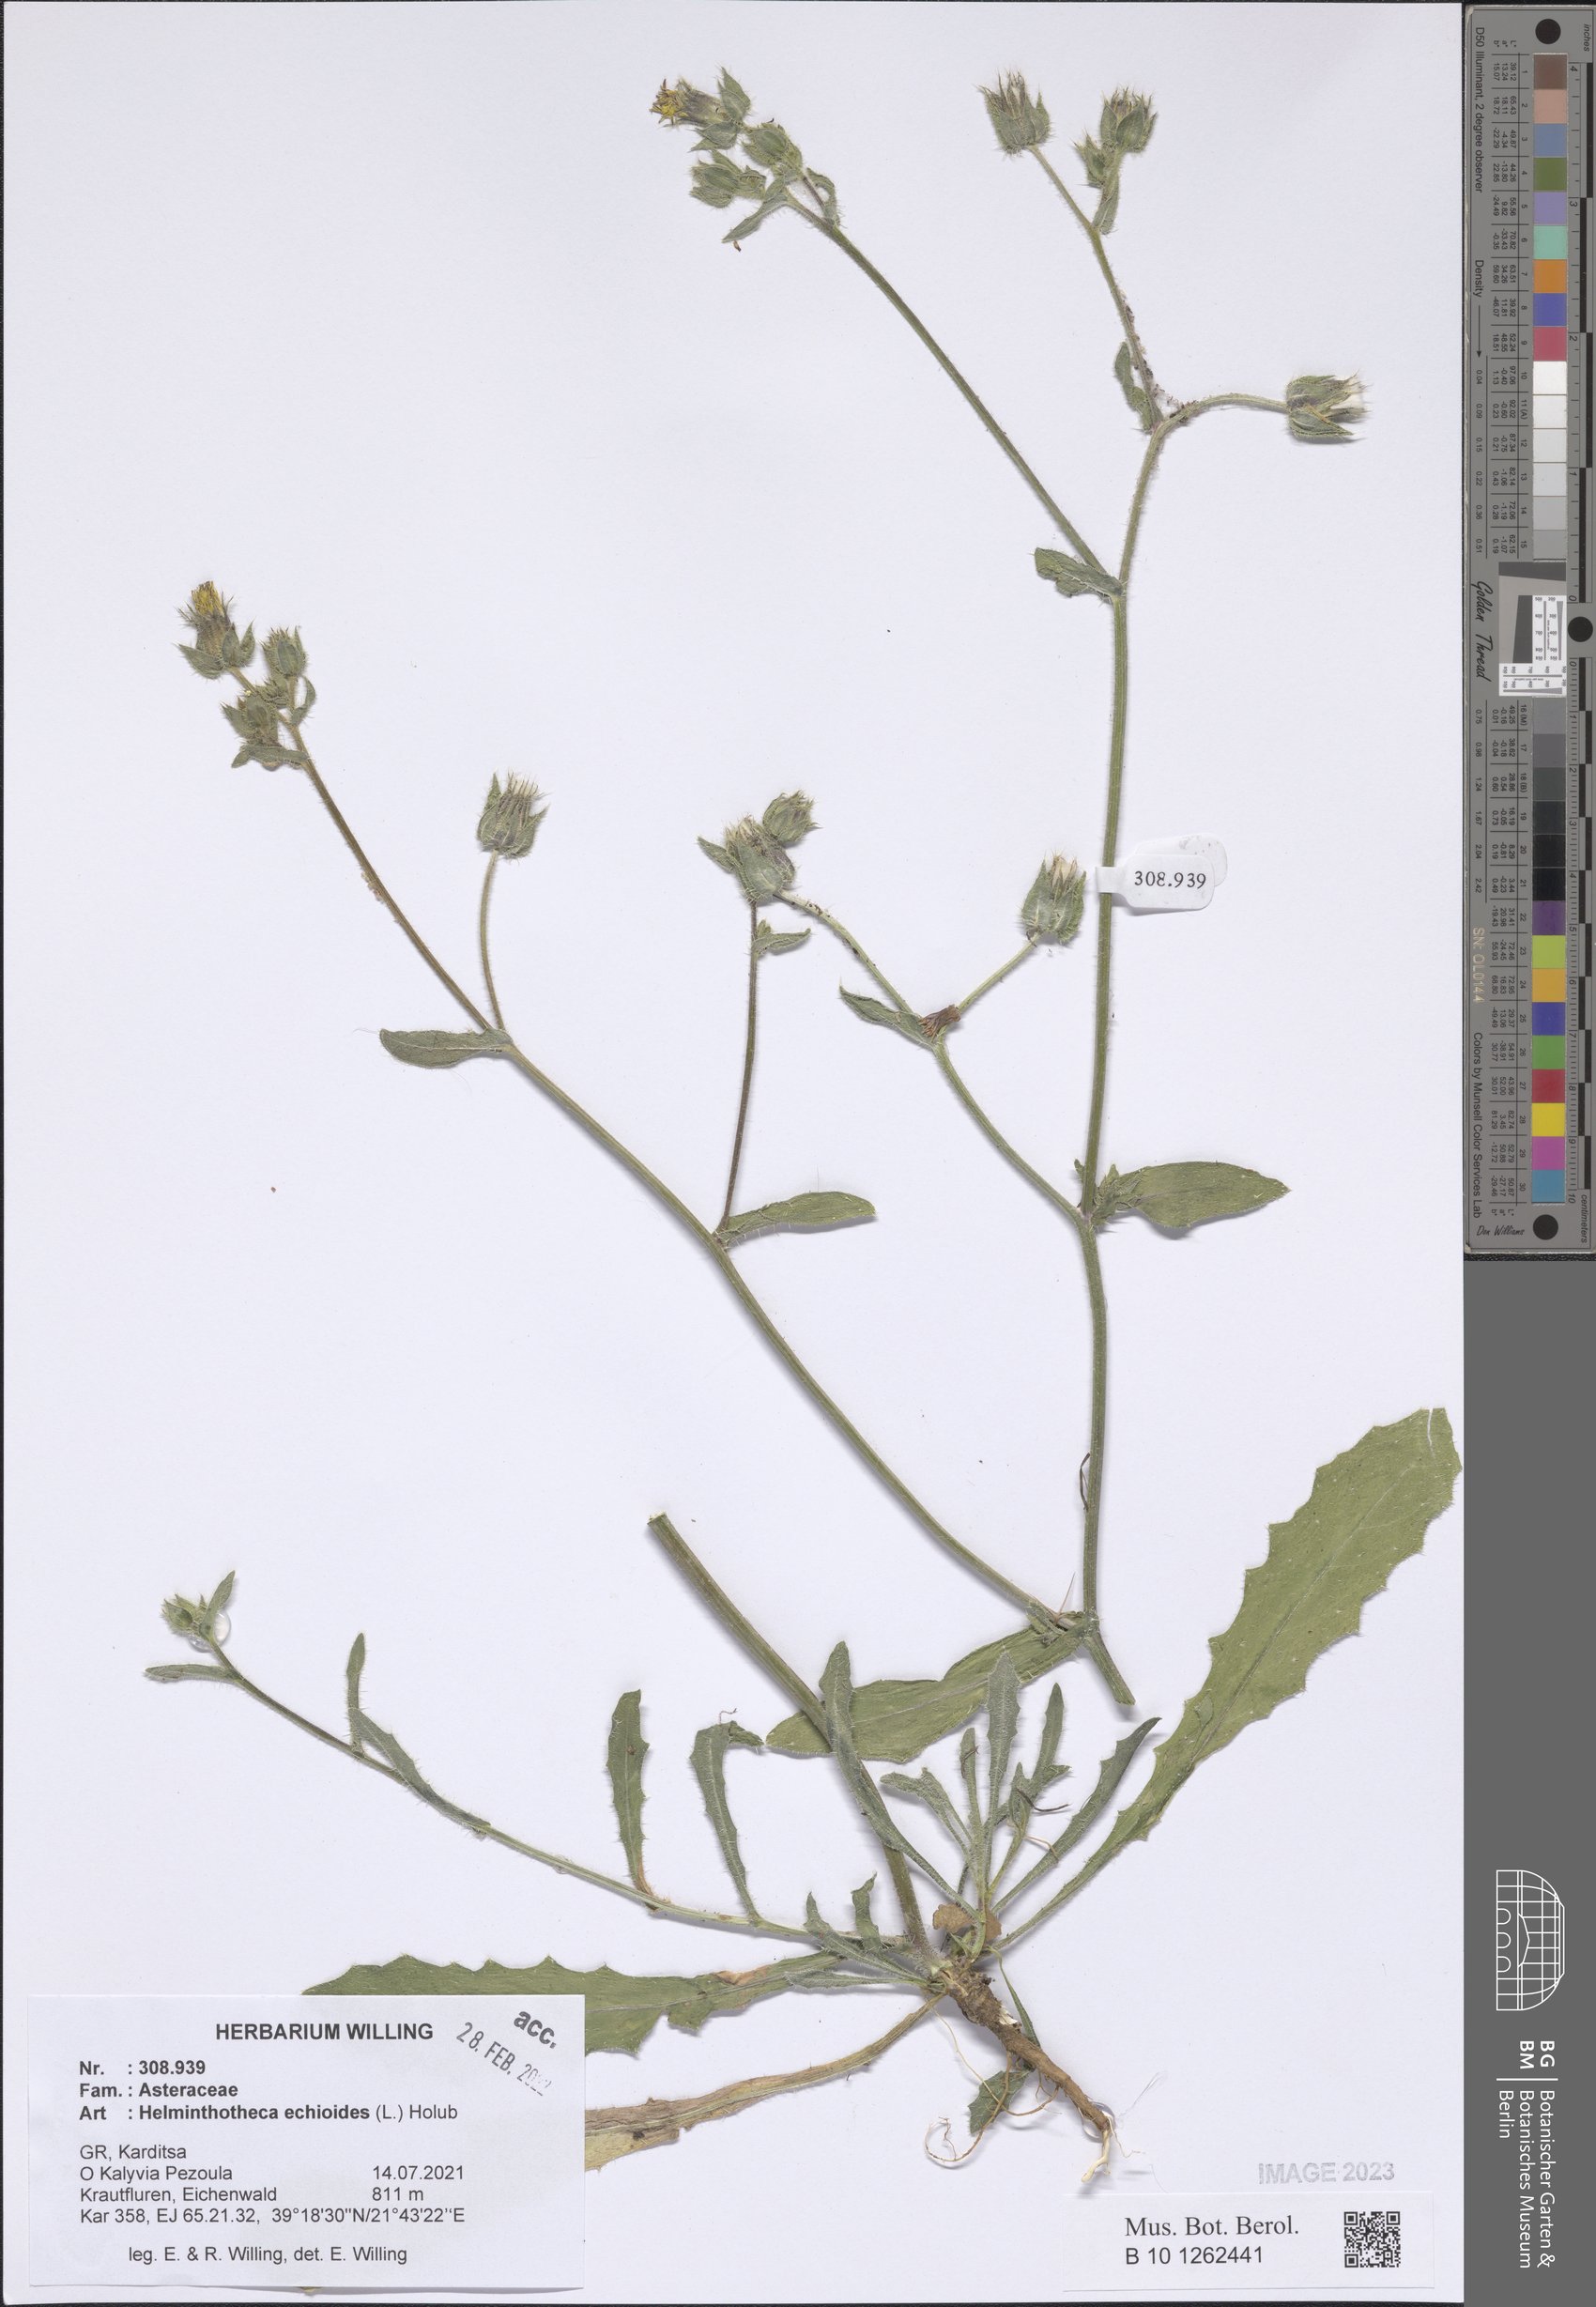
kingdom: Plantae
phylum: Tracheophyta
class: Magnoliopsida
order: Asterales
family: Asteraceae
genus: Helminthotheca
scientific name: Helminthotheca echioides
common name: Ox-tongue
